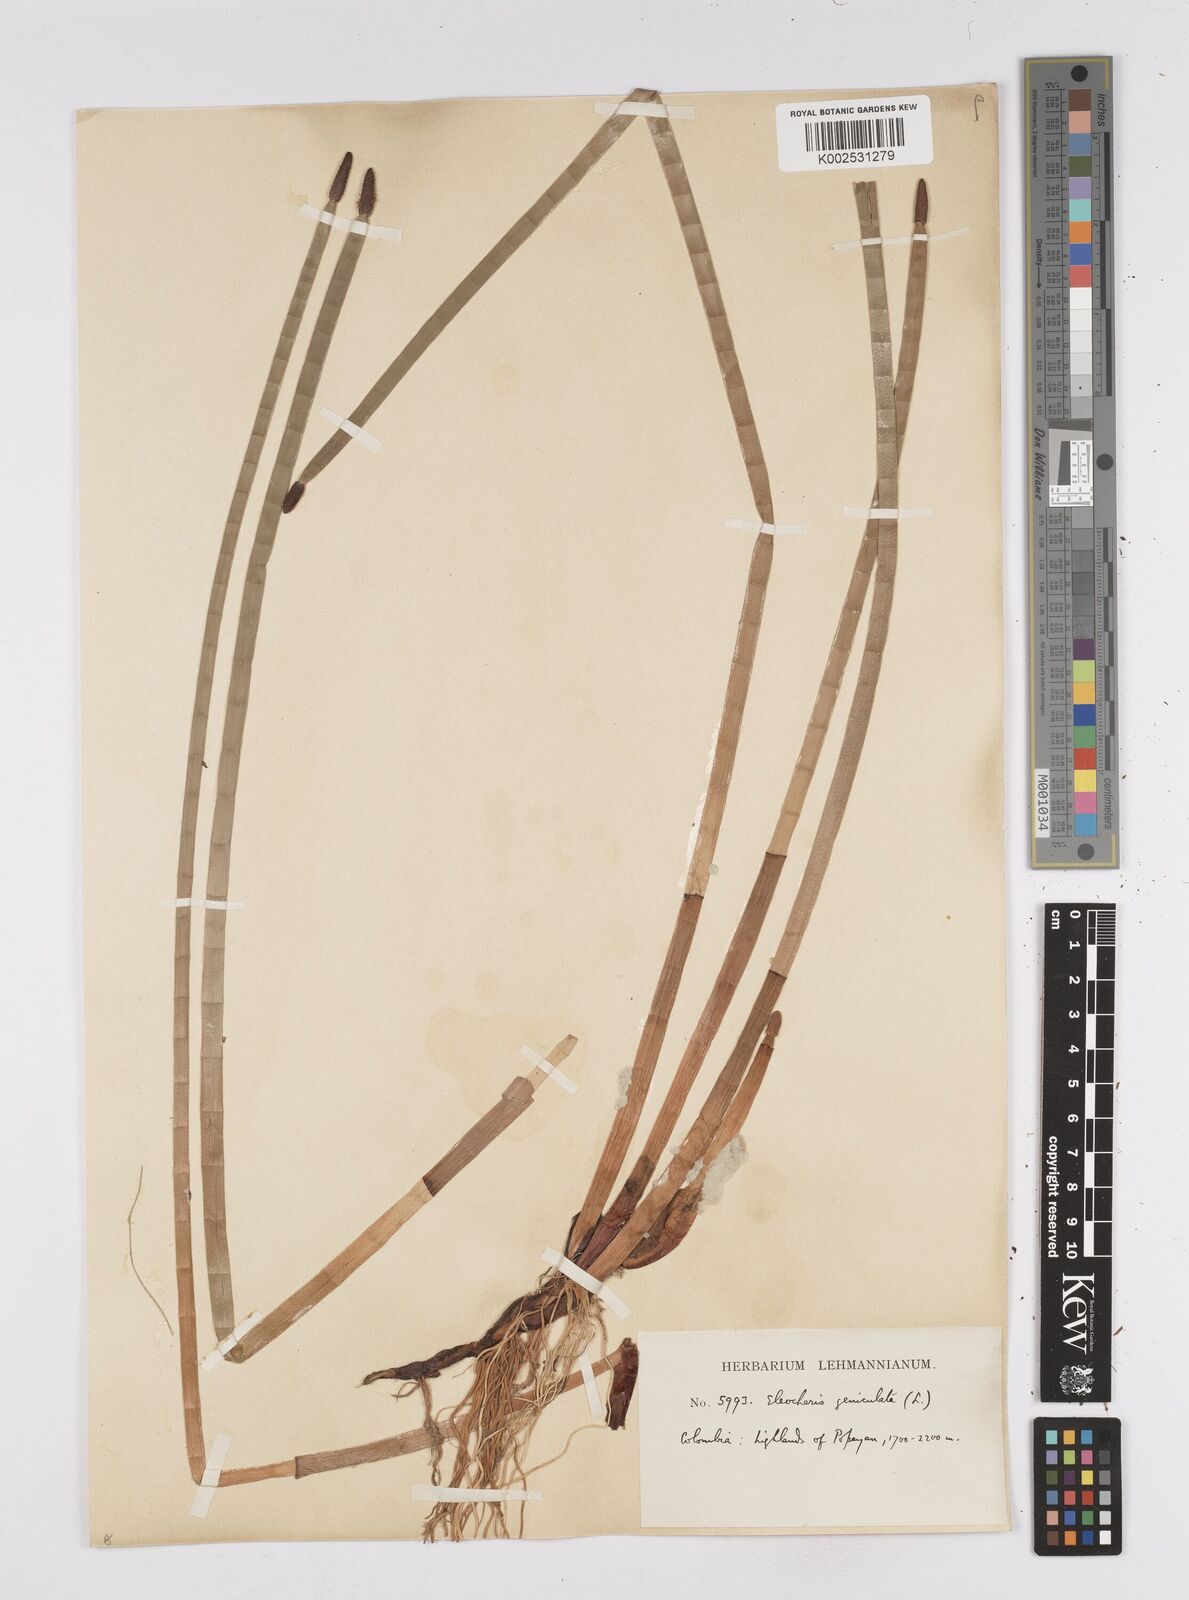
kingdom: Plantae
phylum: Tracheophyta
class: Liliopsida
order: Poales
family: Cyperaceae
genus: Eleocharis
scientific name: Eleocharis elegans
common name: Elegant spike-rush
